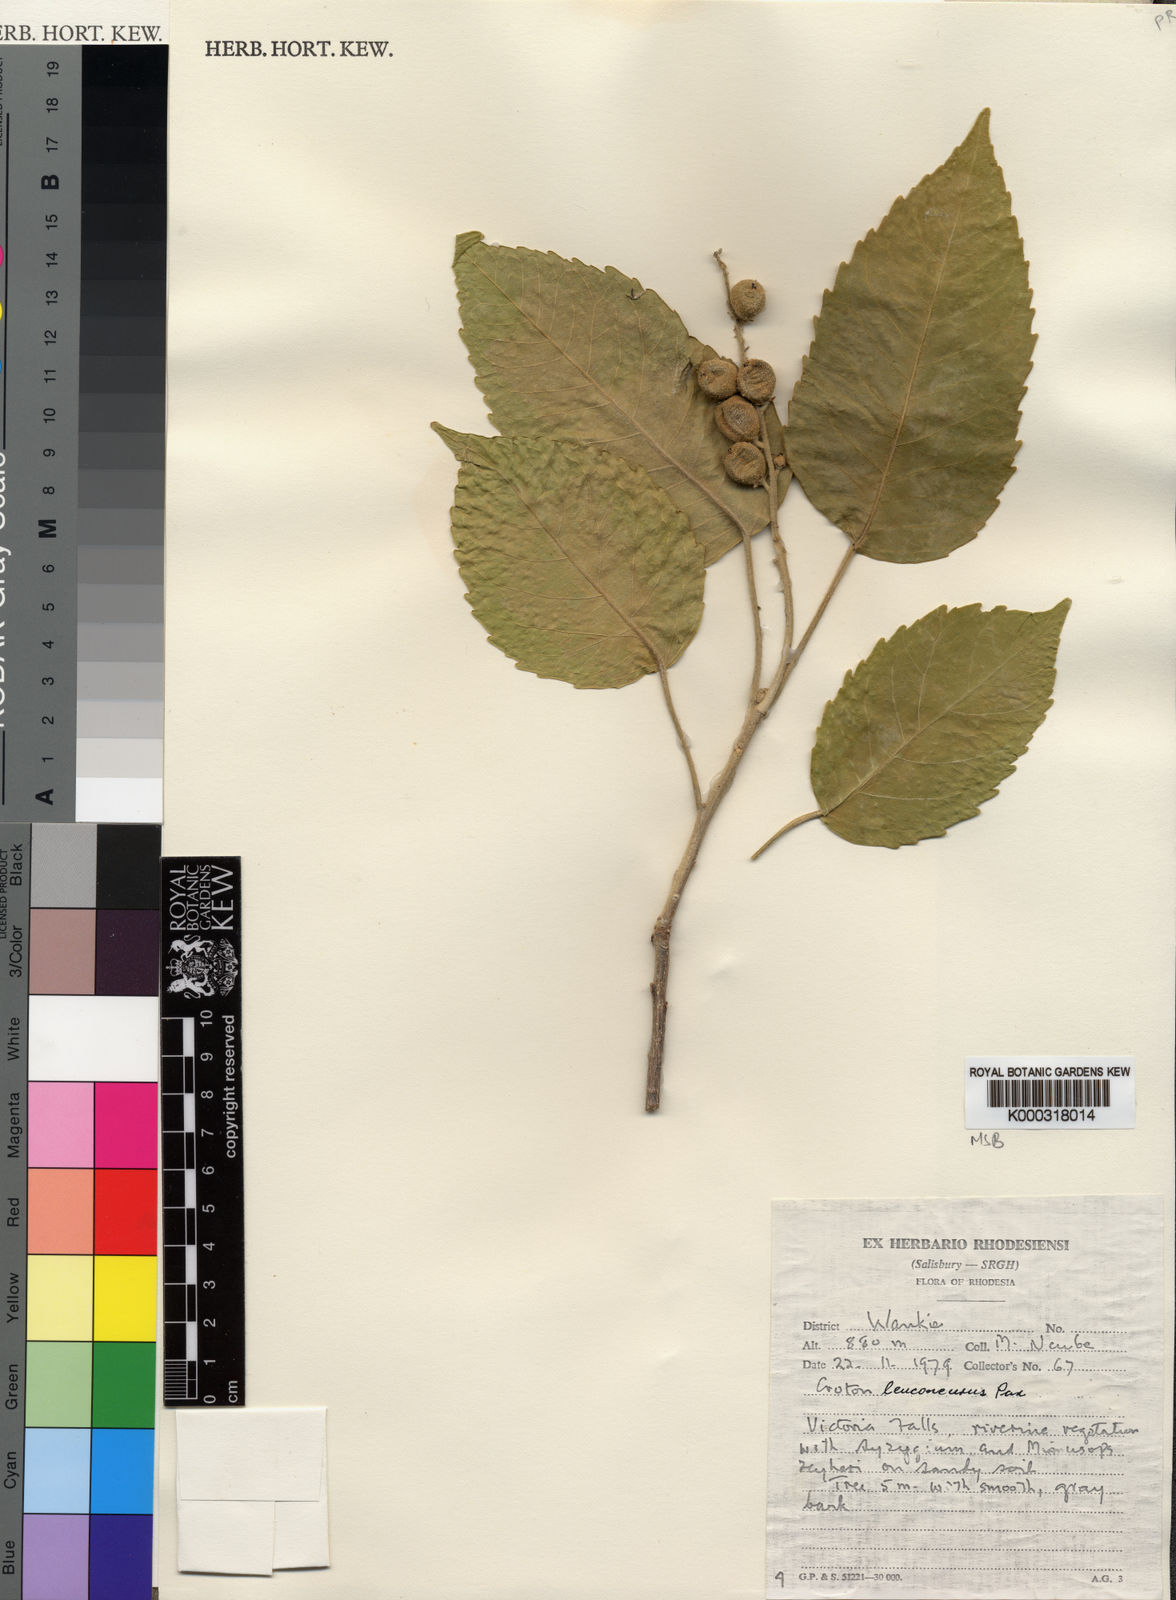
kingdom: Plantae
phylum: Tracheophyta
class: Magnoliopsida
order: Malpighiales
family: Euphorbiaceae
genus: Croton
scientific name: Croton leuconeurus
